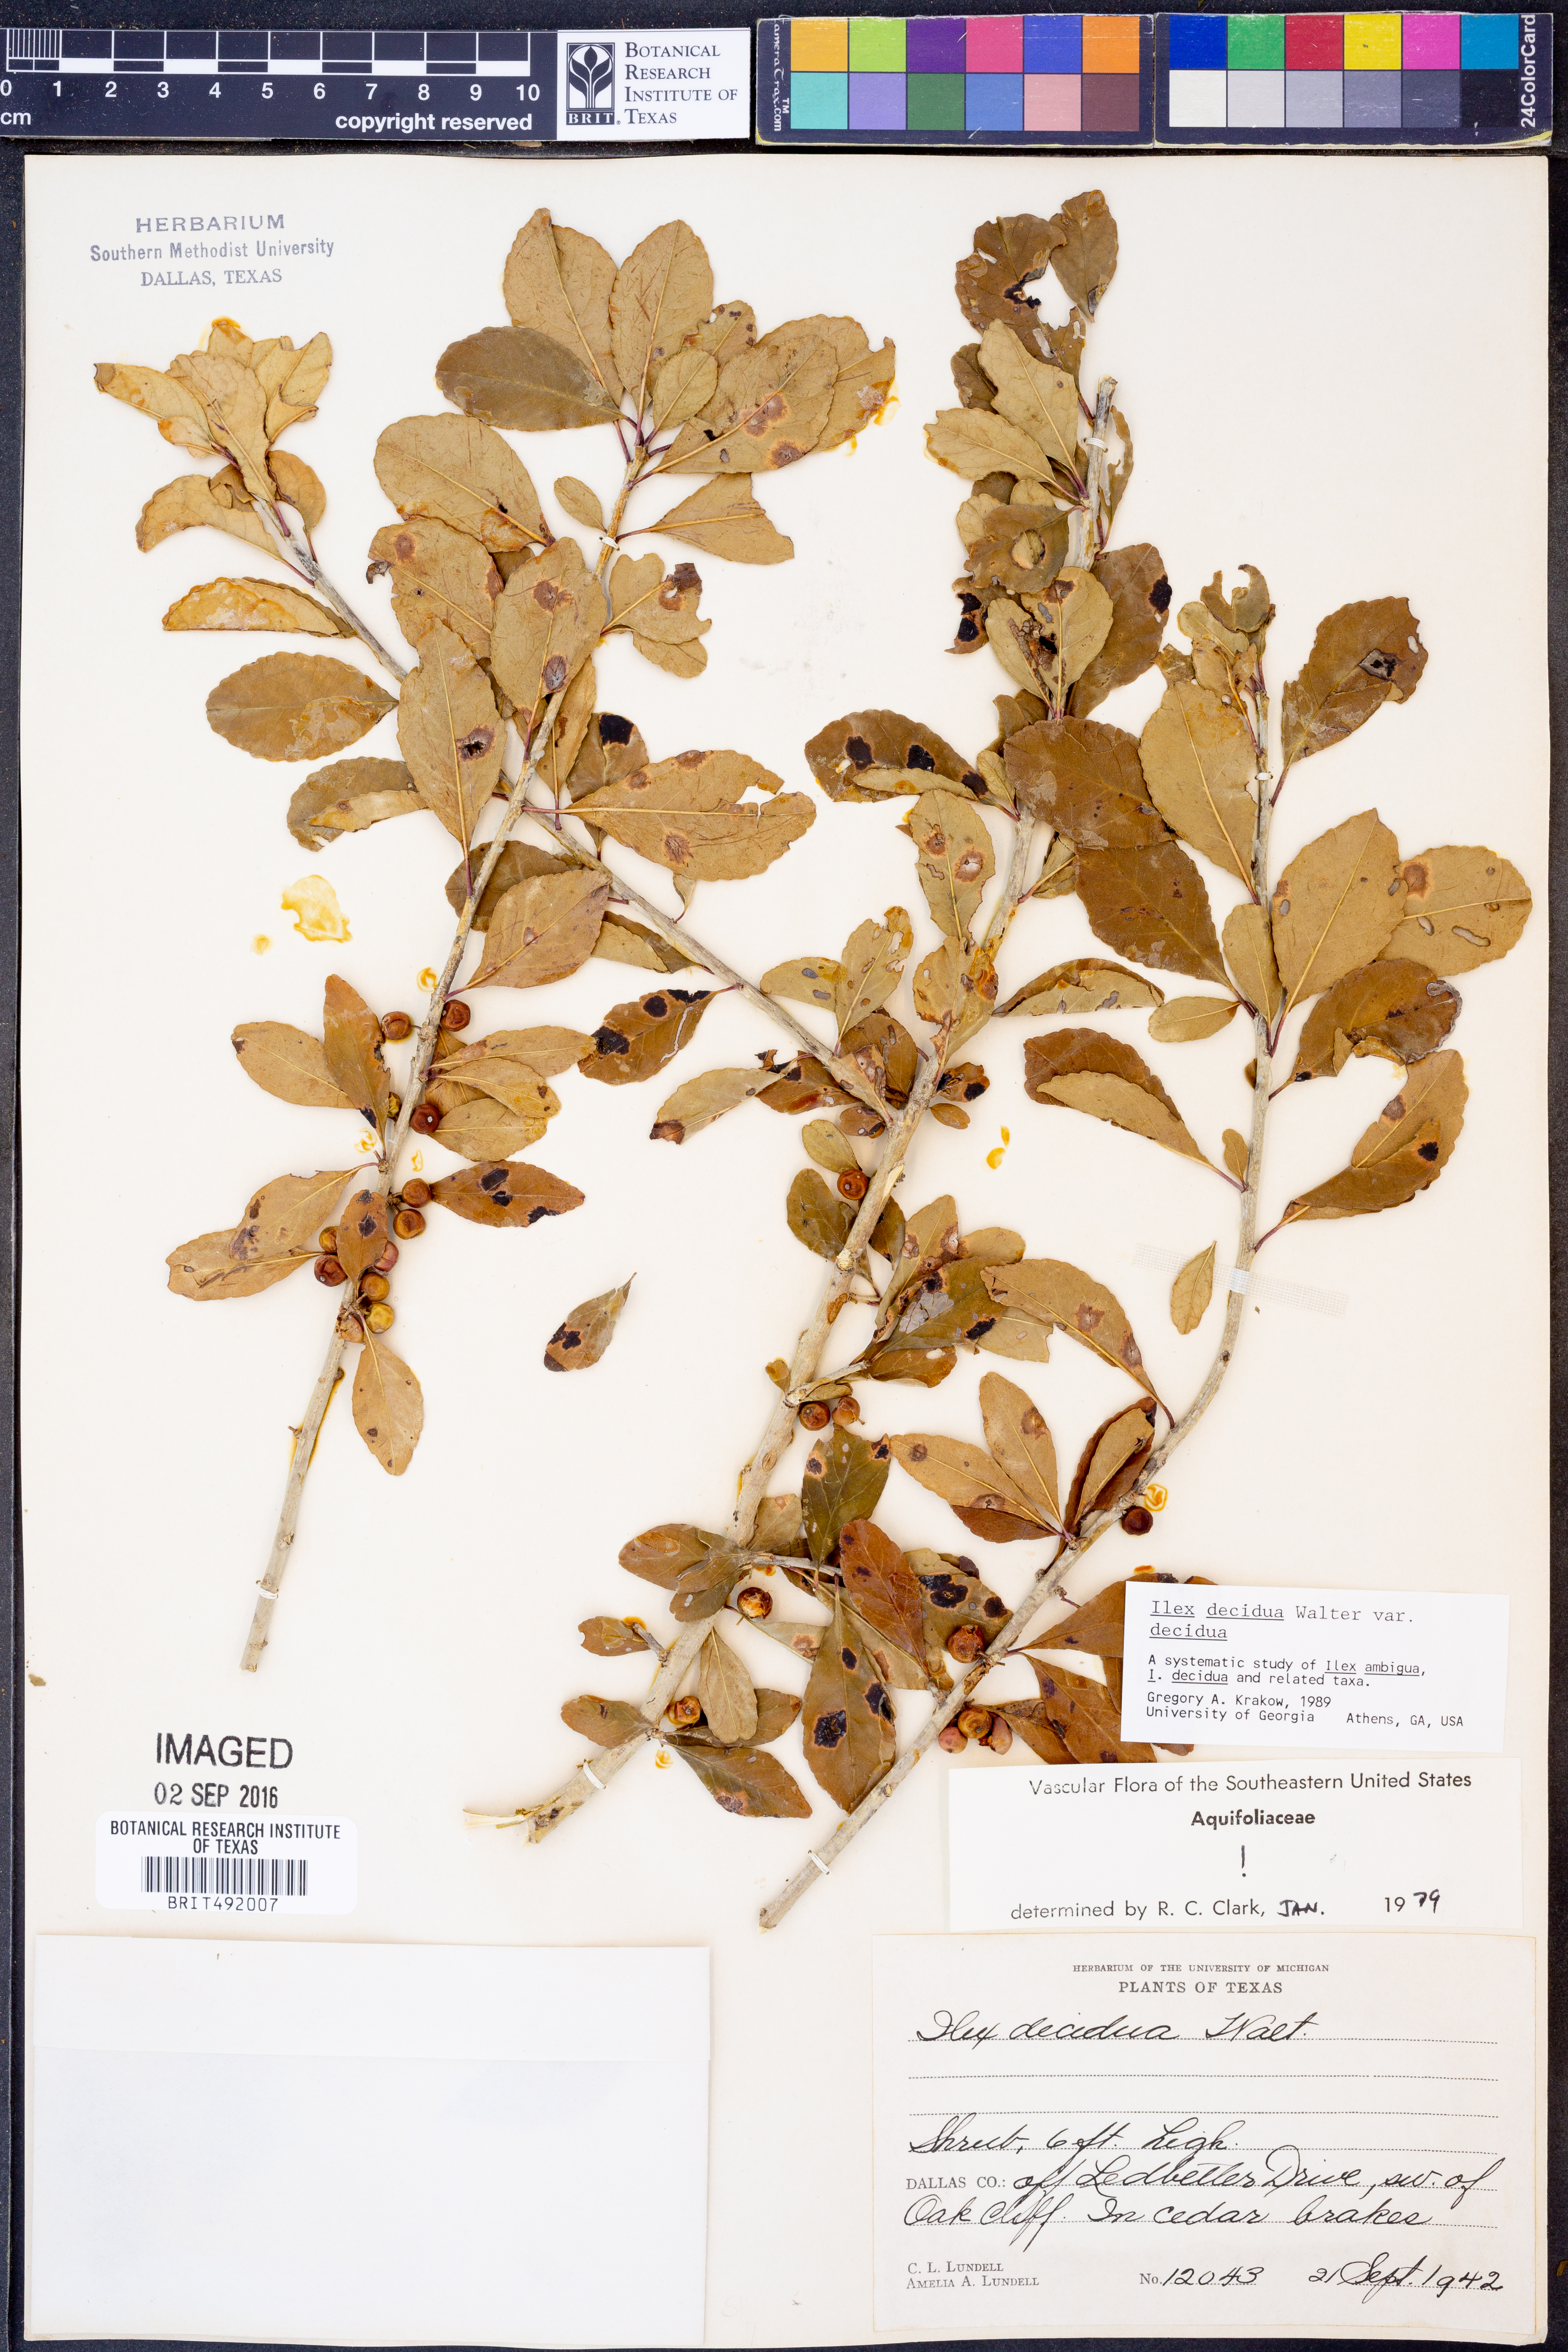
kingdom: Plantae
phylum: Tracheophyta
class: Magnoliopsida
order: Aquifoliales
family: Aquifoliaceae
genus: Ilex
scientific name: Ilex decidua
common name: Possum-haw
